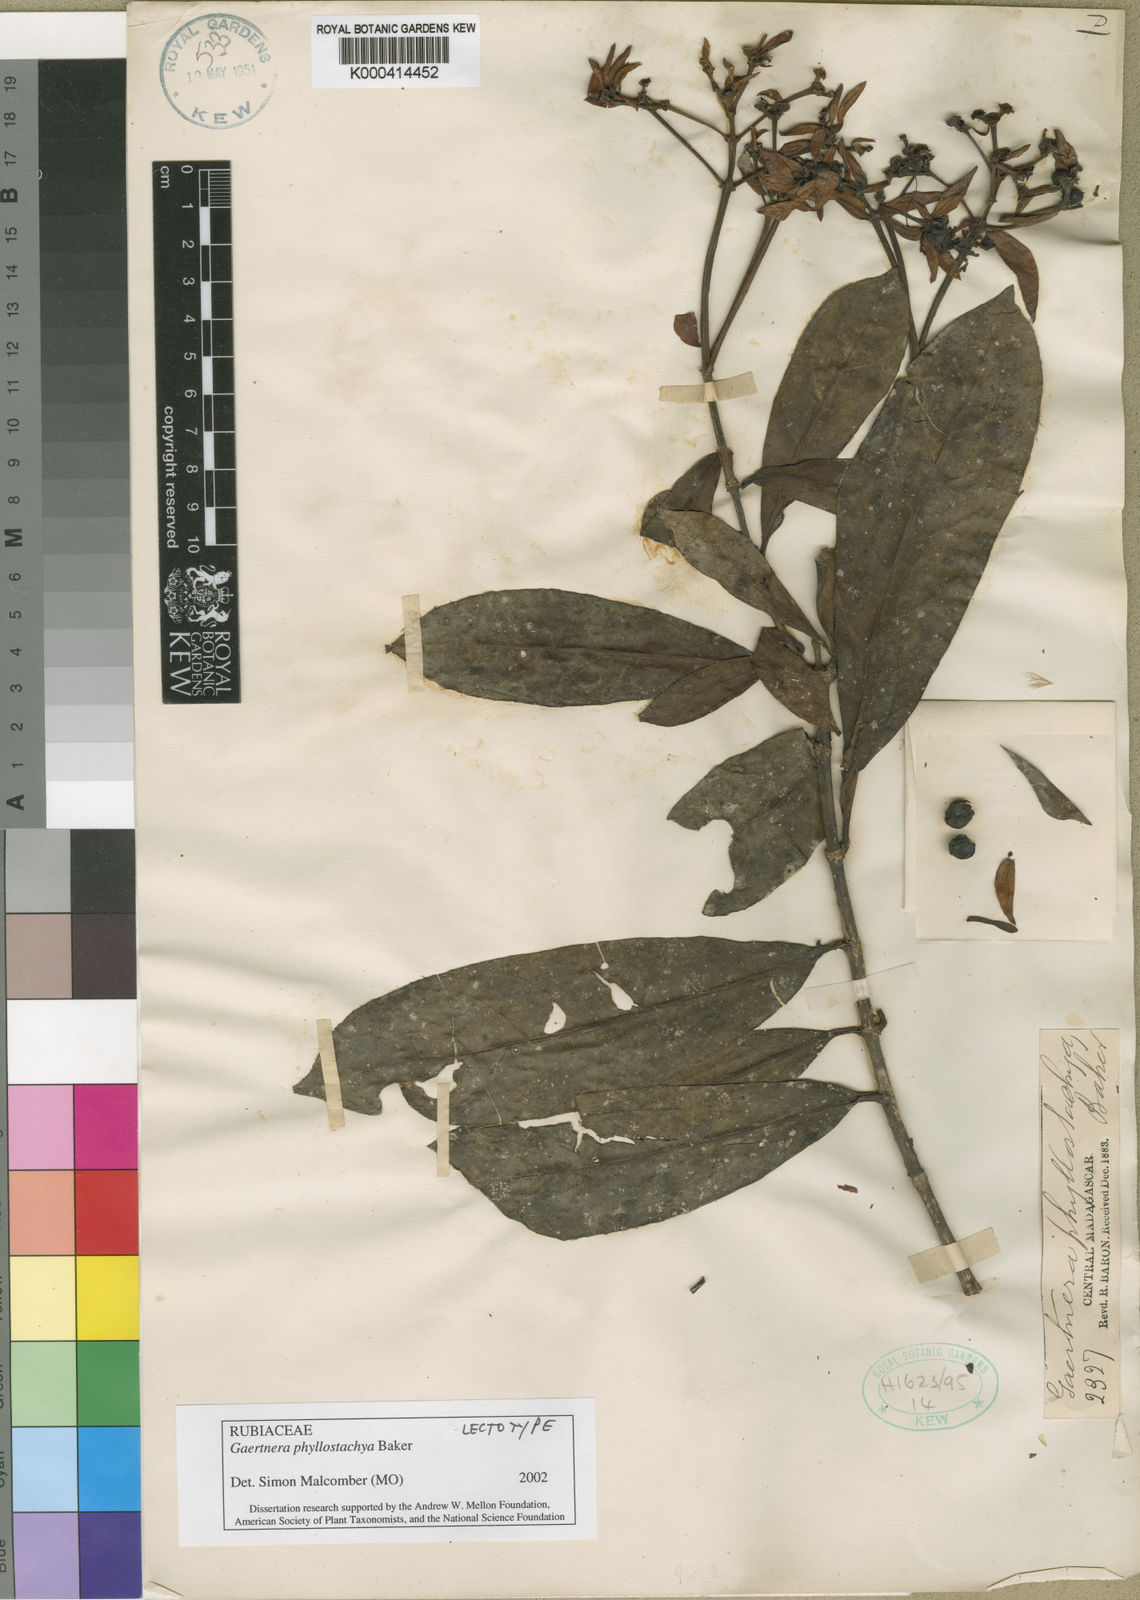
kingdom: Plantae
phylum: Tracheophyta
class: Magnoliopsida
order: Gentianales
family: Rubiaceae
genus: Gaertnera
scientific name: Gaertnera phyllostachya
